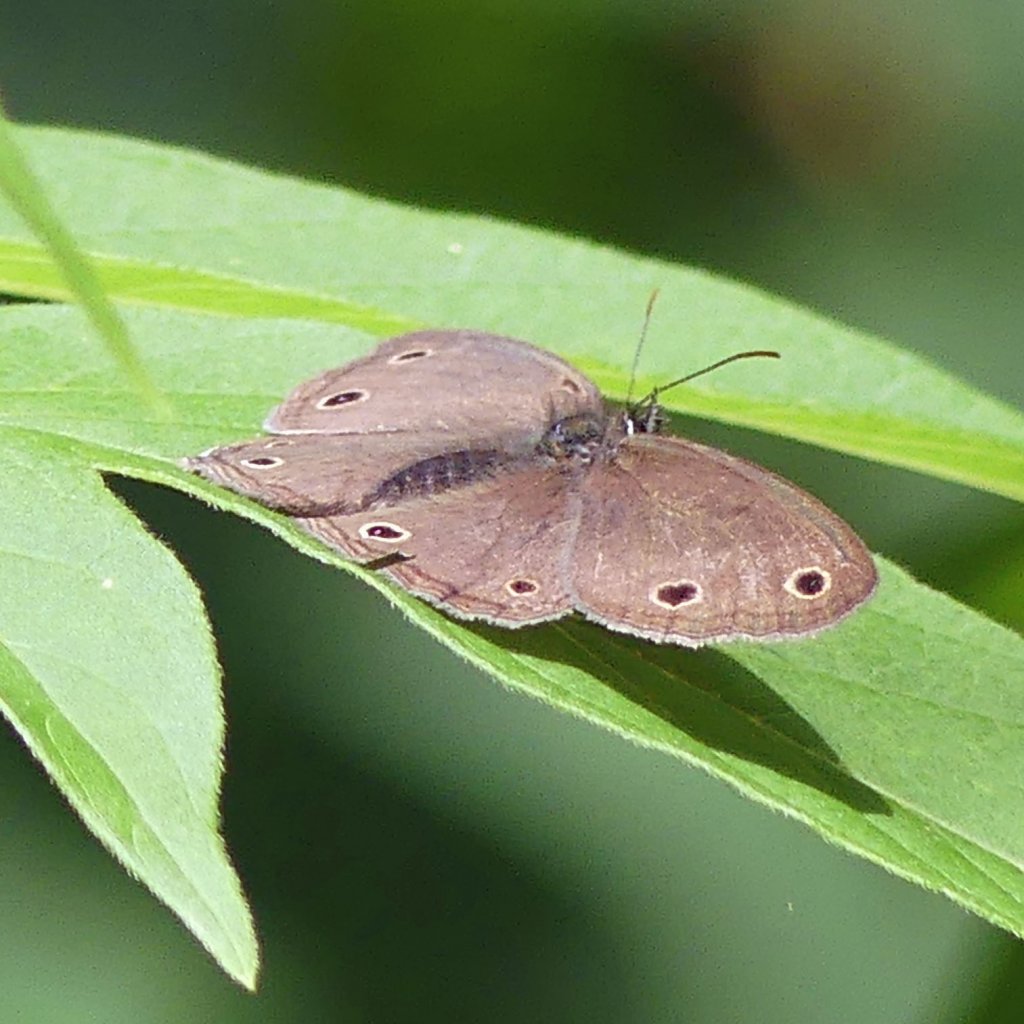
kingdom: Animalia
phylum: Arthropoda
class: Insecta
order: Lepidoptera
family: Nymphalidae
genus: Euptychia
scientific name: Euptychia cymela
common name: Little Wood Satyr
